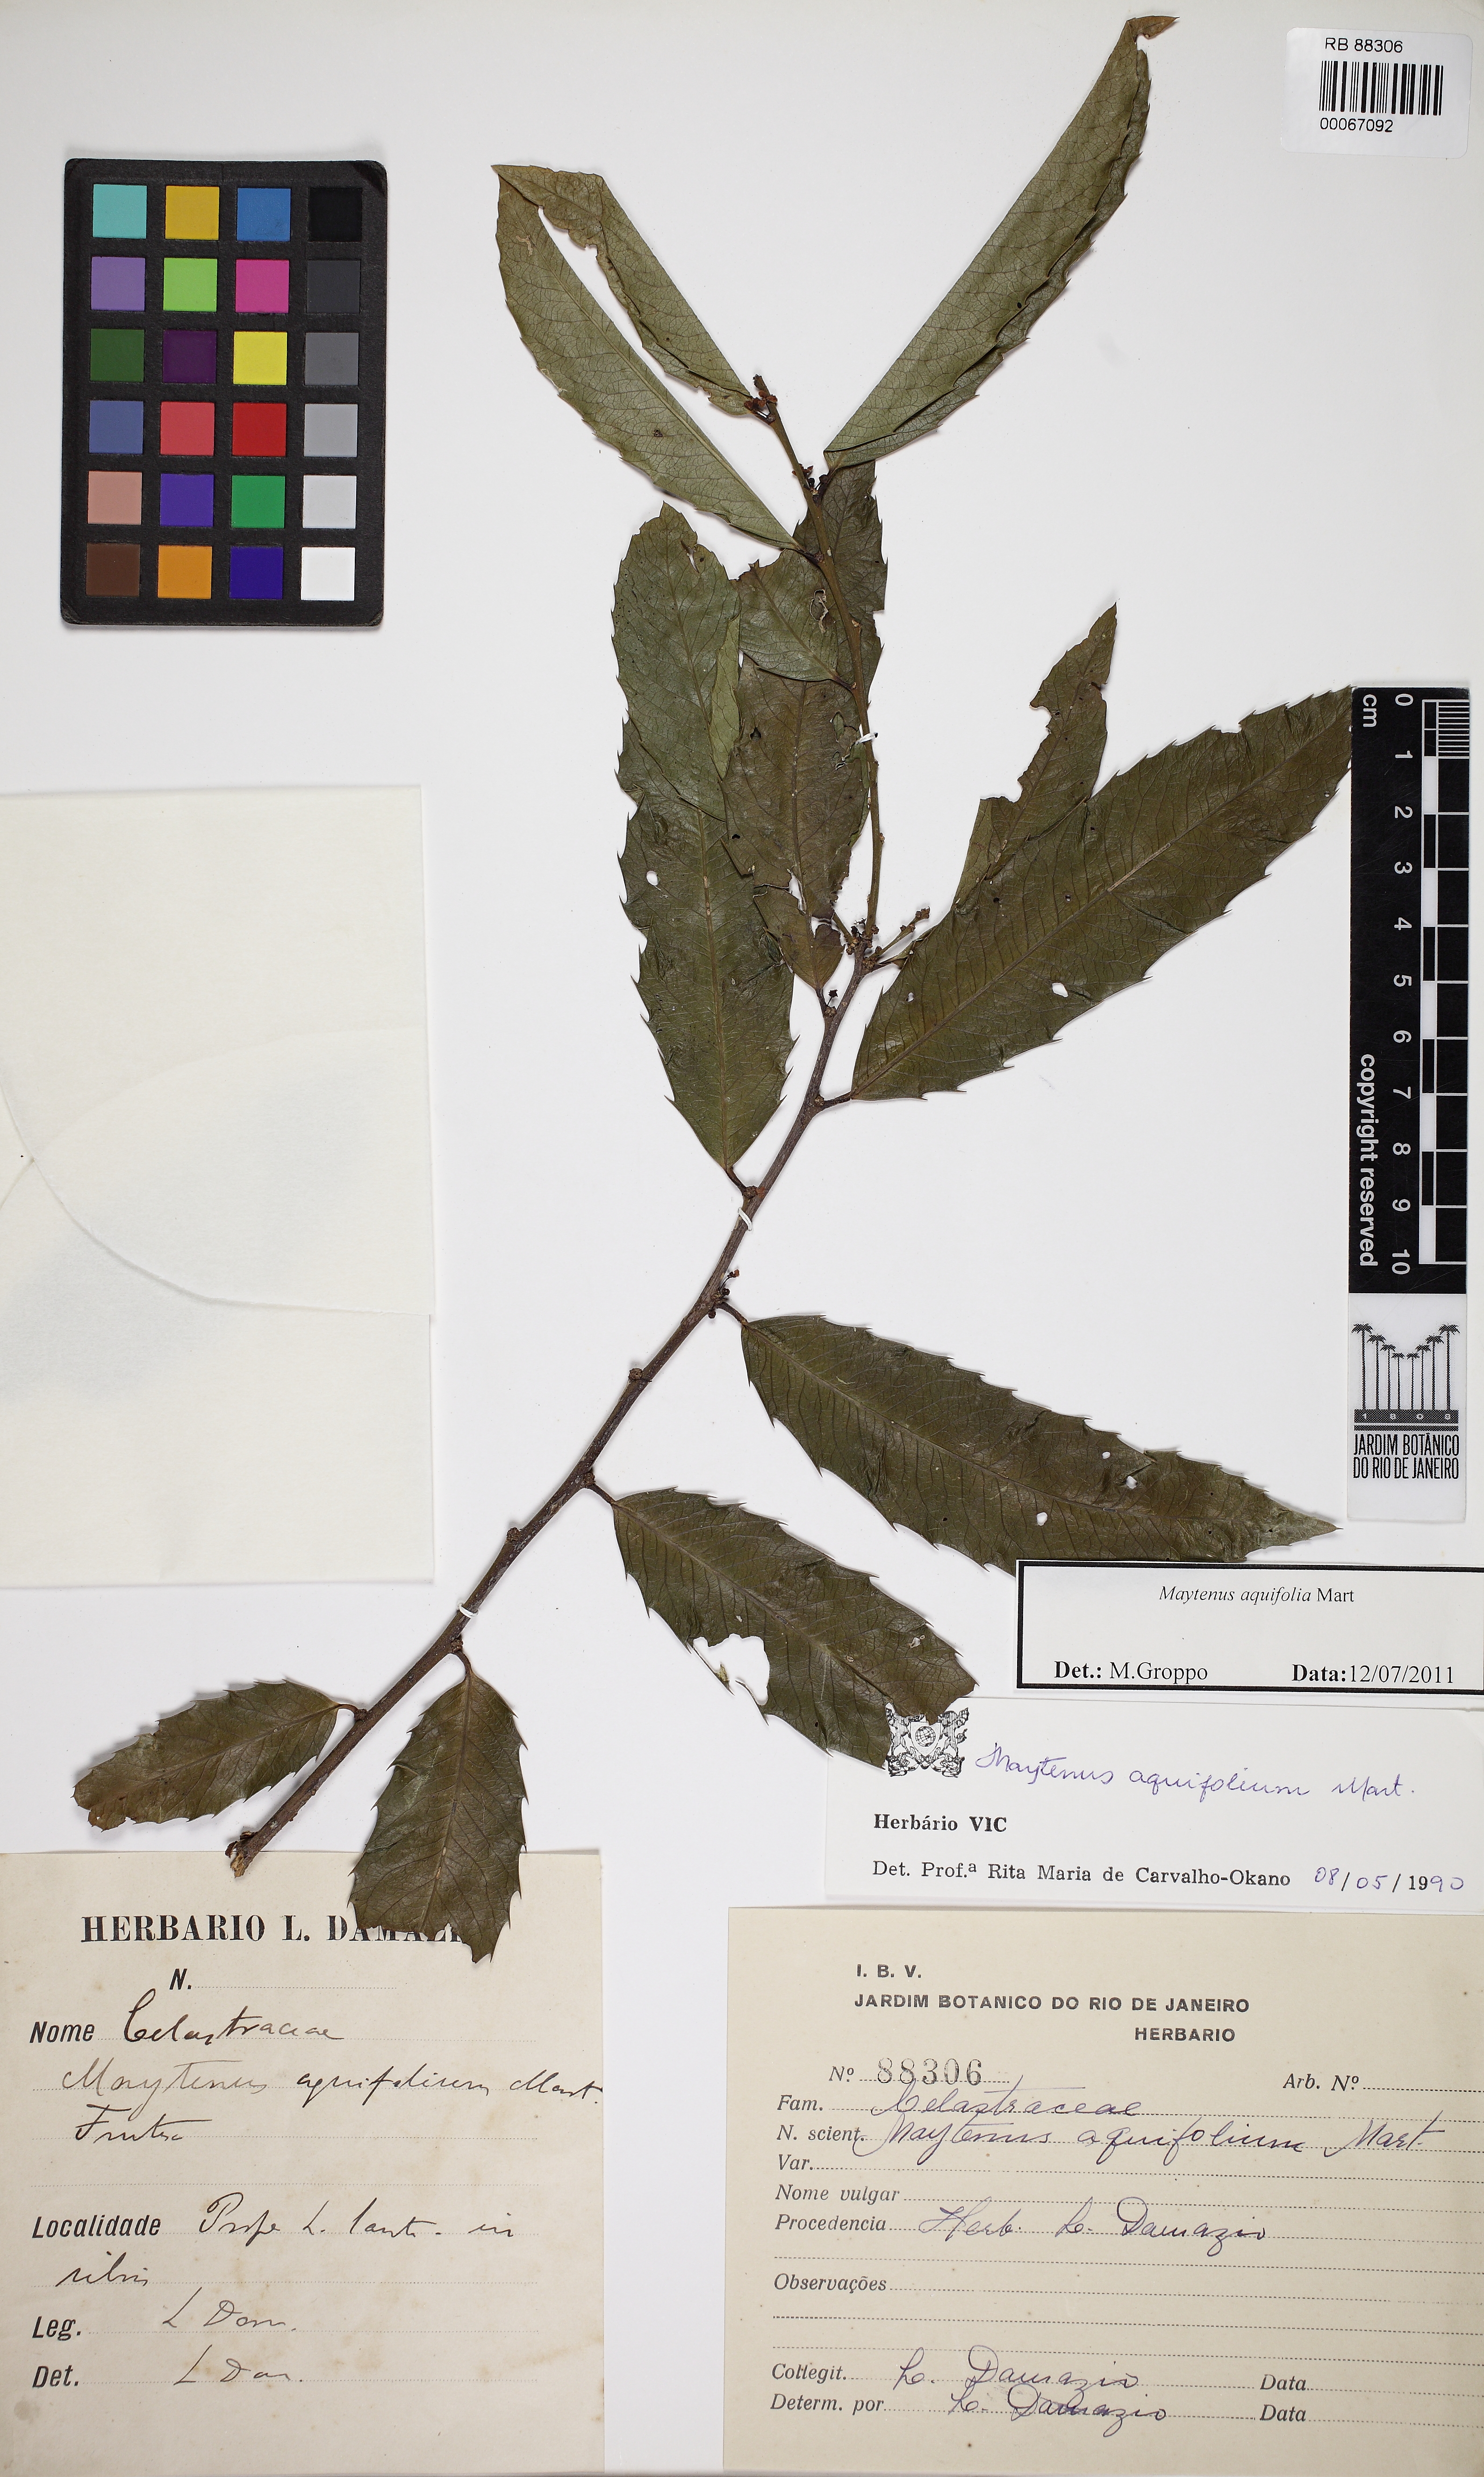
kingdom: Plantae
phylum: Tracheophyta
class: Magnoliopsida
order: Celastrales
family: Celastraceae
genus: Monteverdia
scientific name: Monteverdia aquifolium
